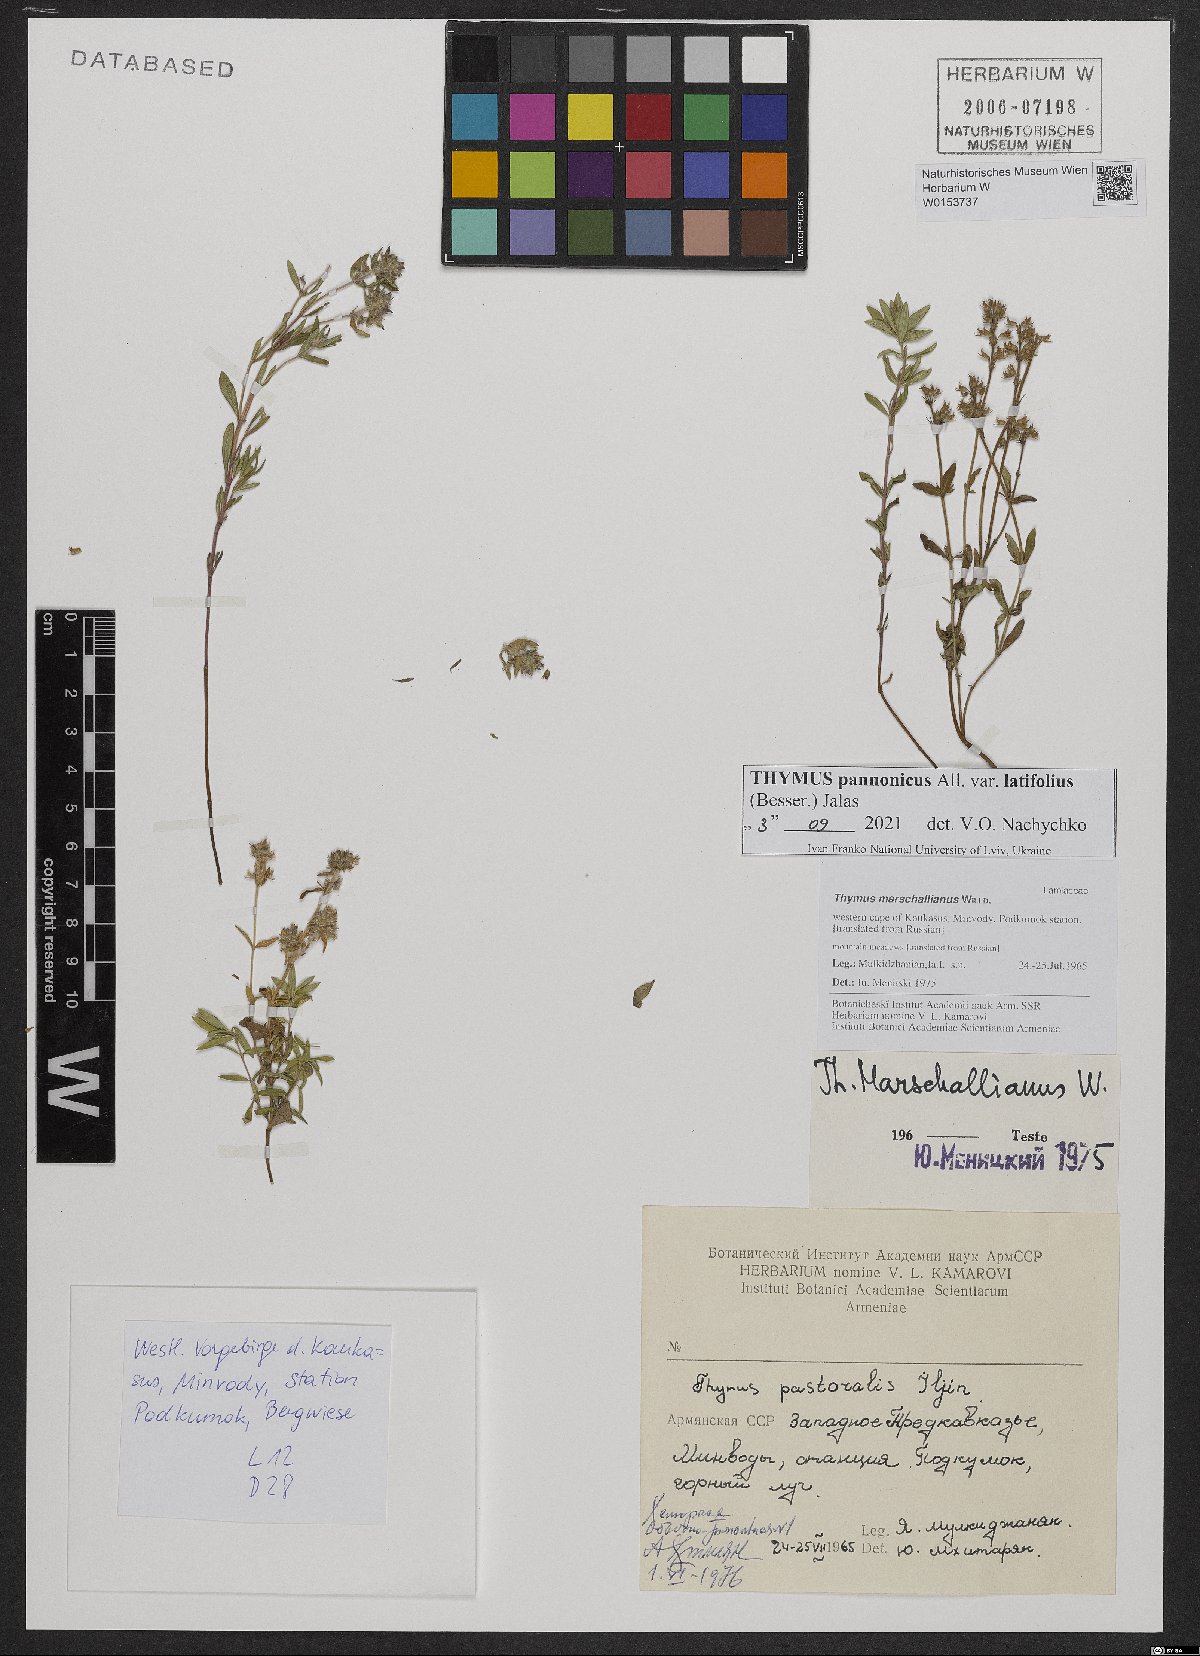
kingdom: Plantae
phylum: Tracheophyta
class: Magnoliopsida
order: Lamiales
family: Lamiaceae
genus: Thymus
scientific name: Thymus pannonicus
